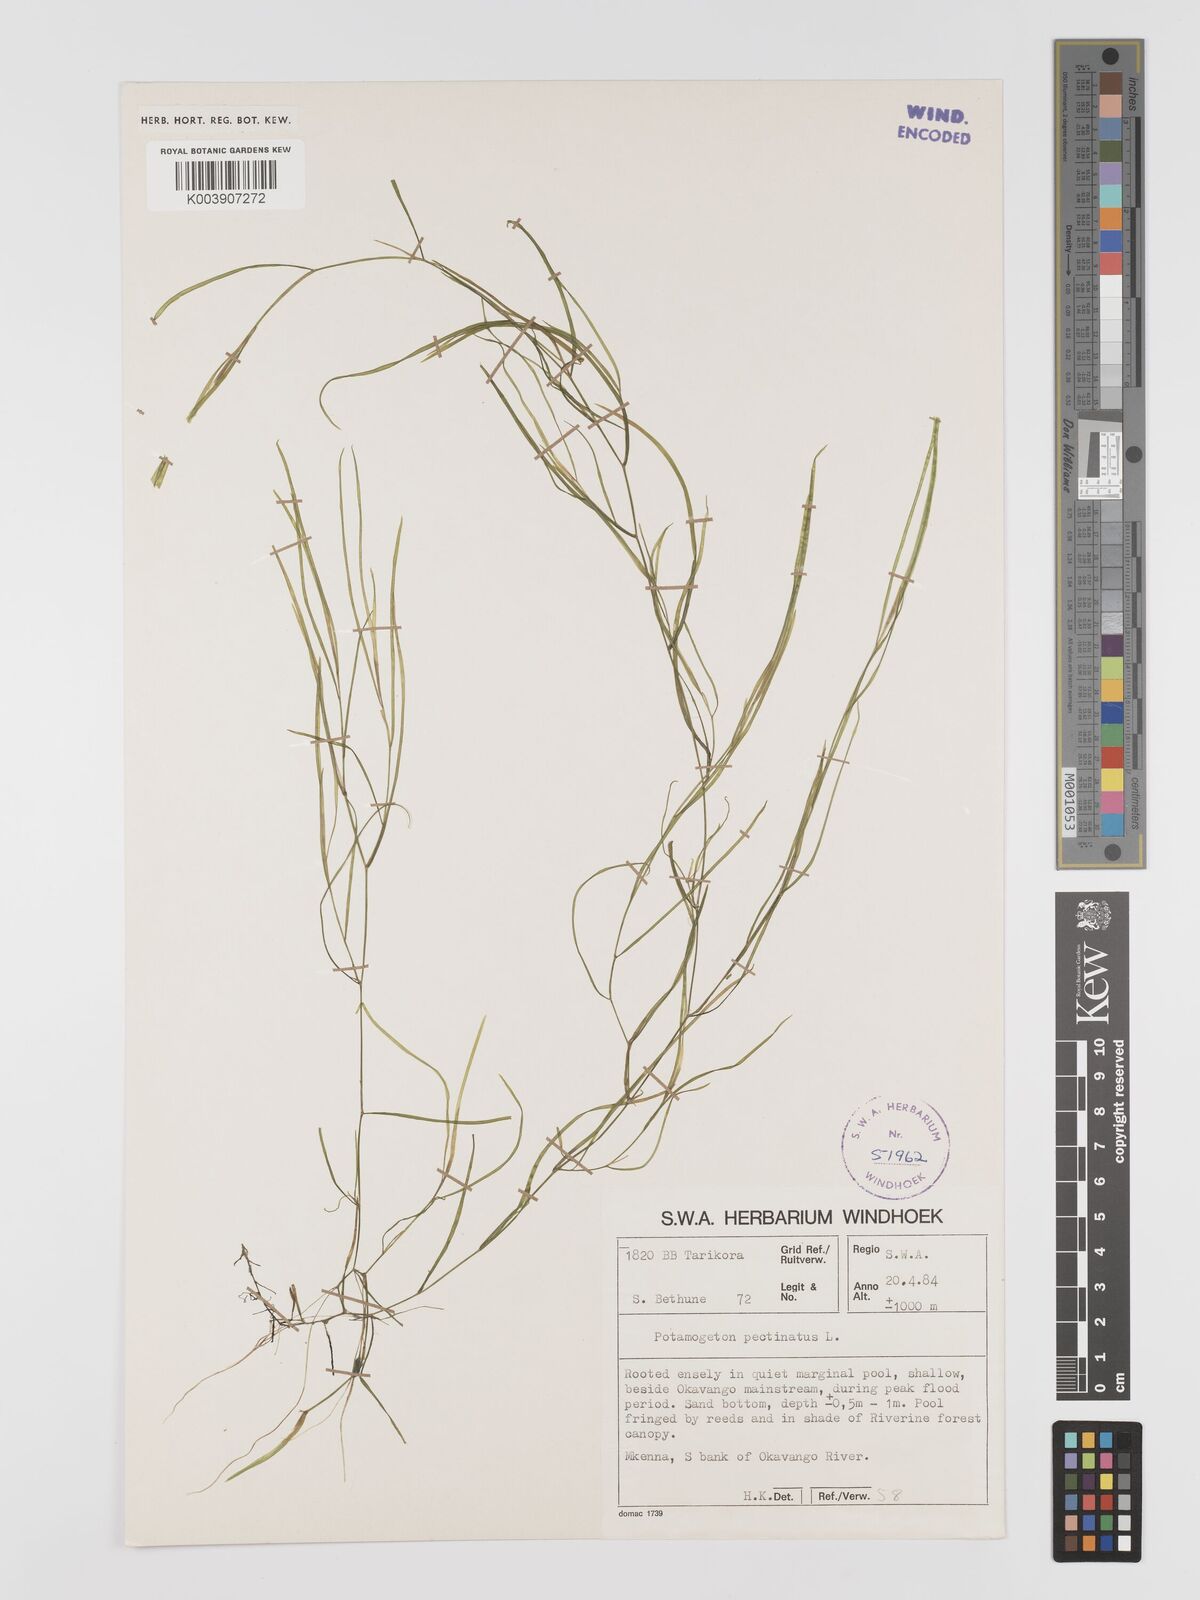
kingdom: Plantae
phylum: Tracheophyta
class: Liliopsida
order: Alismatales
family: Potamogetonaceae
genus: Stuckenia
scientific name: Stuckenia pectinata
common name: Sago pondweed
